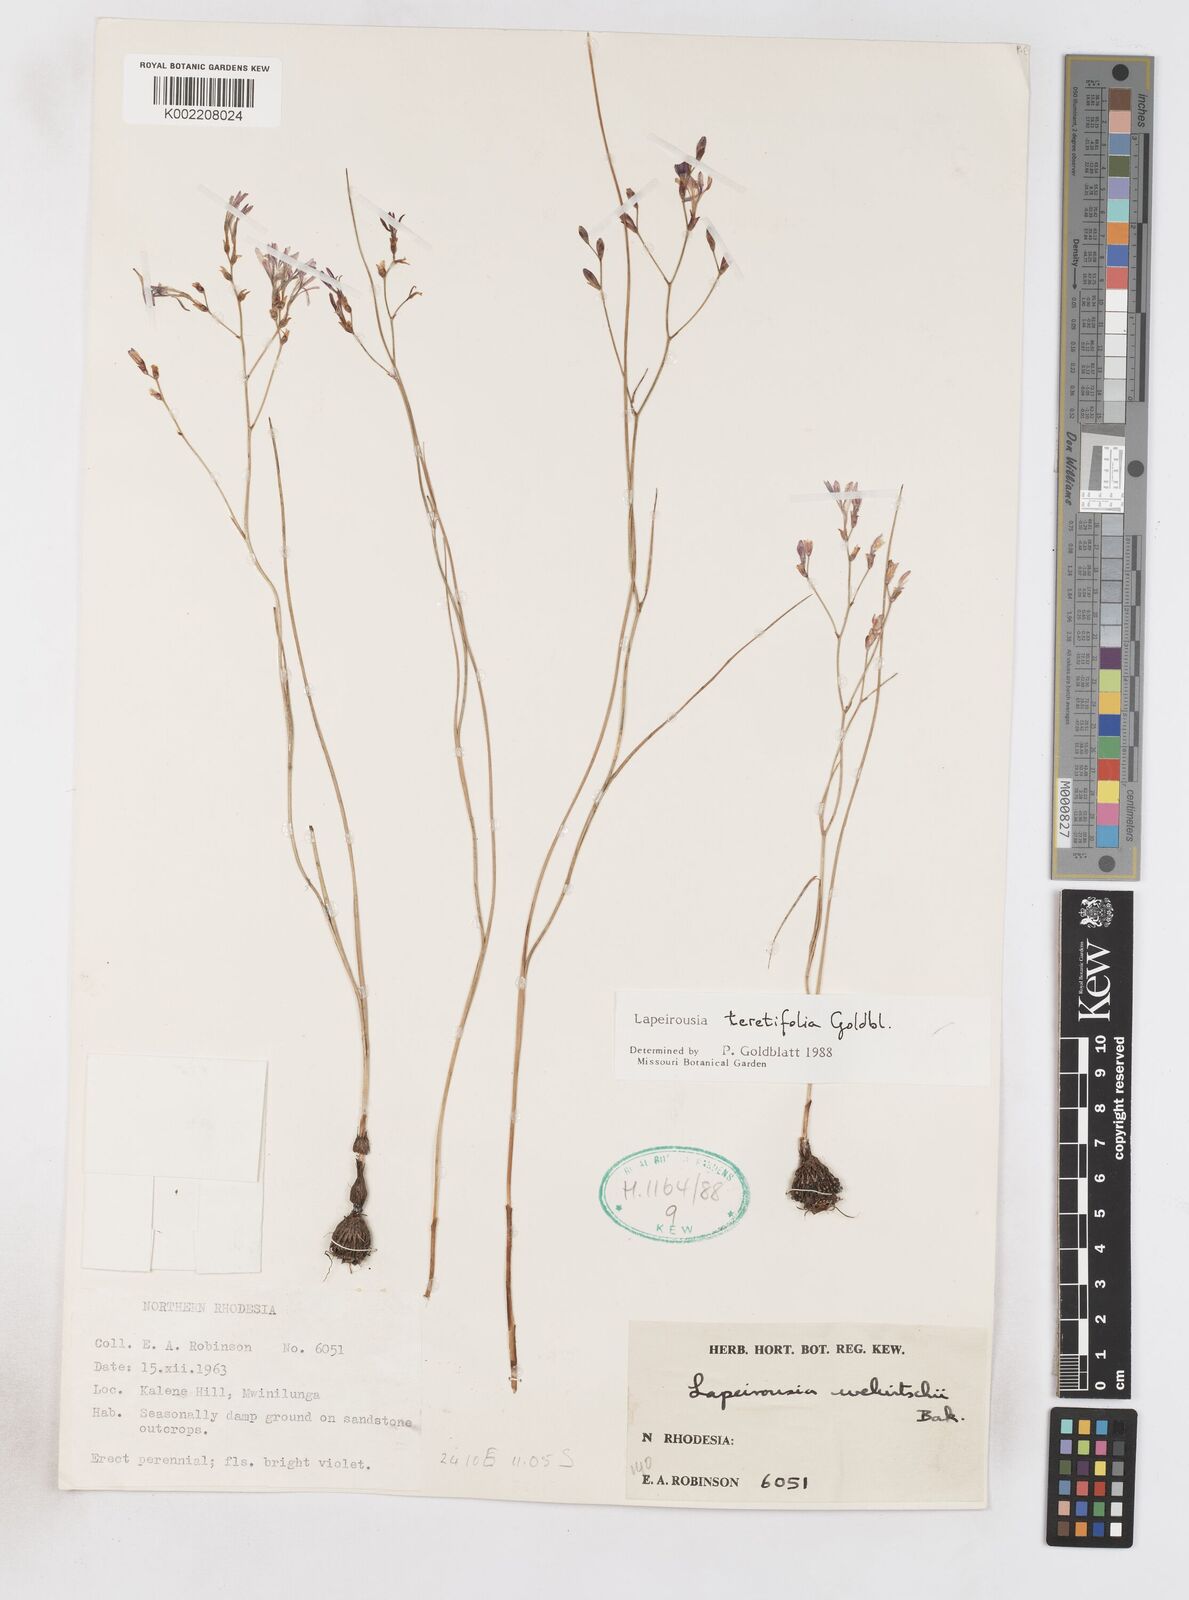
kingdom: Plantae
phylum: Tracheophyta
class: Liliopsida
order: Asparagales
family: Iridaceae
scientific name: Iridaceae
